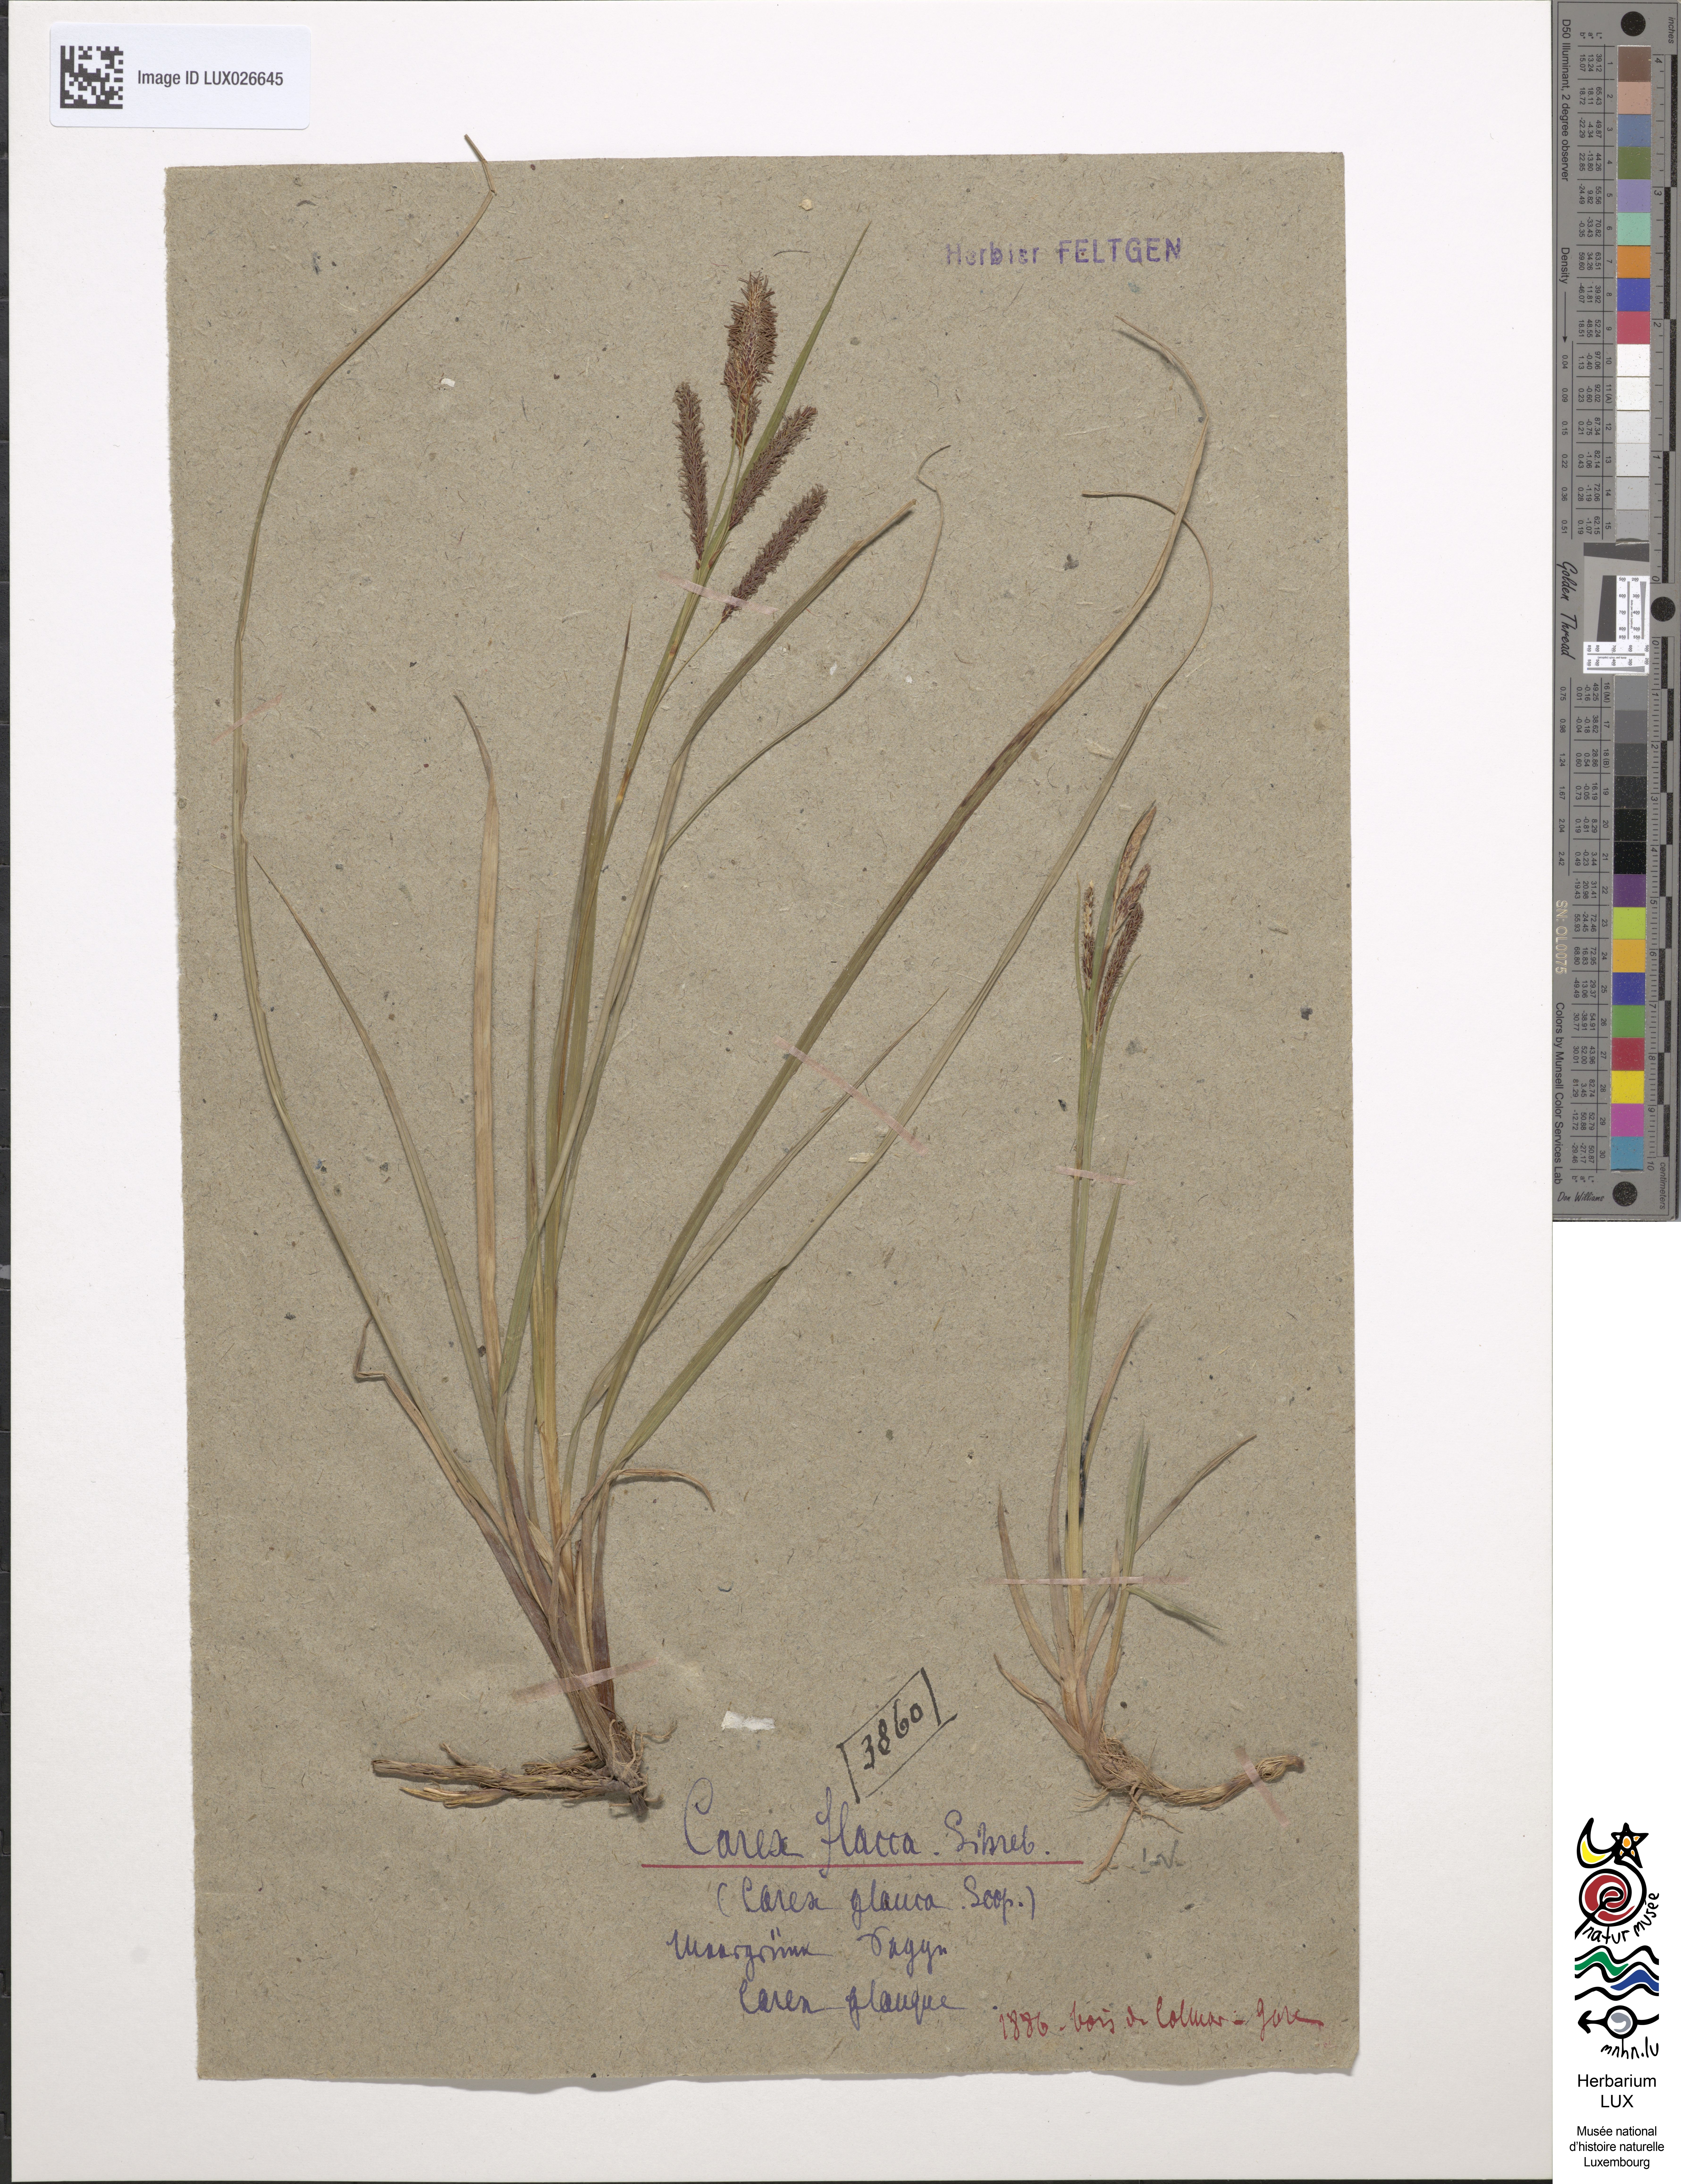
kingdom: Plantae
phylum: Tracheophyta
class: Liliopsida
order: Poales
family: Cyperaceae
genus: Carex
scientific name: Carex flacca
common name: Glaucous sedge
